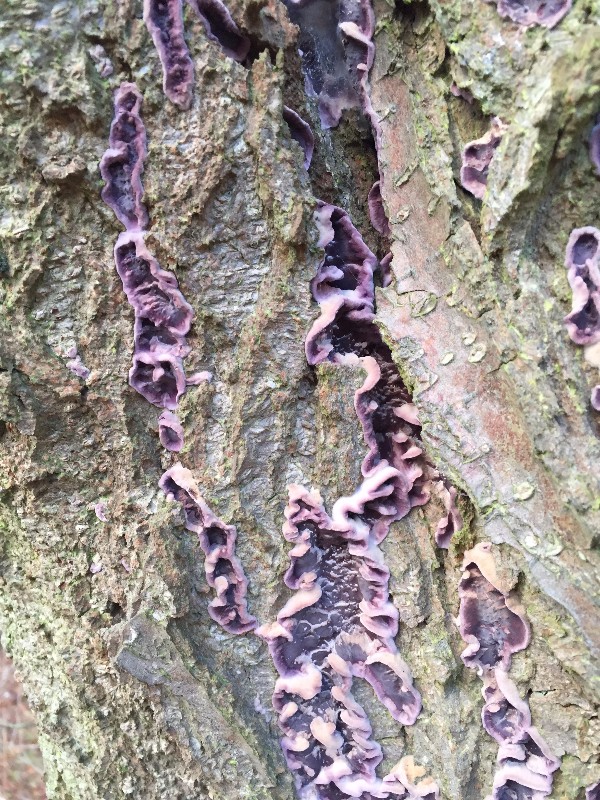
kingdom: Fungi
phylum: Basidiomycota
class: Agaricomycetes
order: Agaricales
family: Cyphellaceae
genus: Chondrostereum
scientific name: Chondrostereum purpureum
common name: purpurlædersvamp
